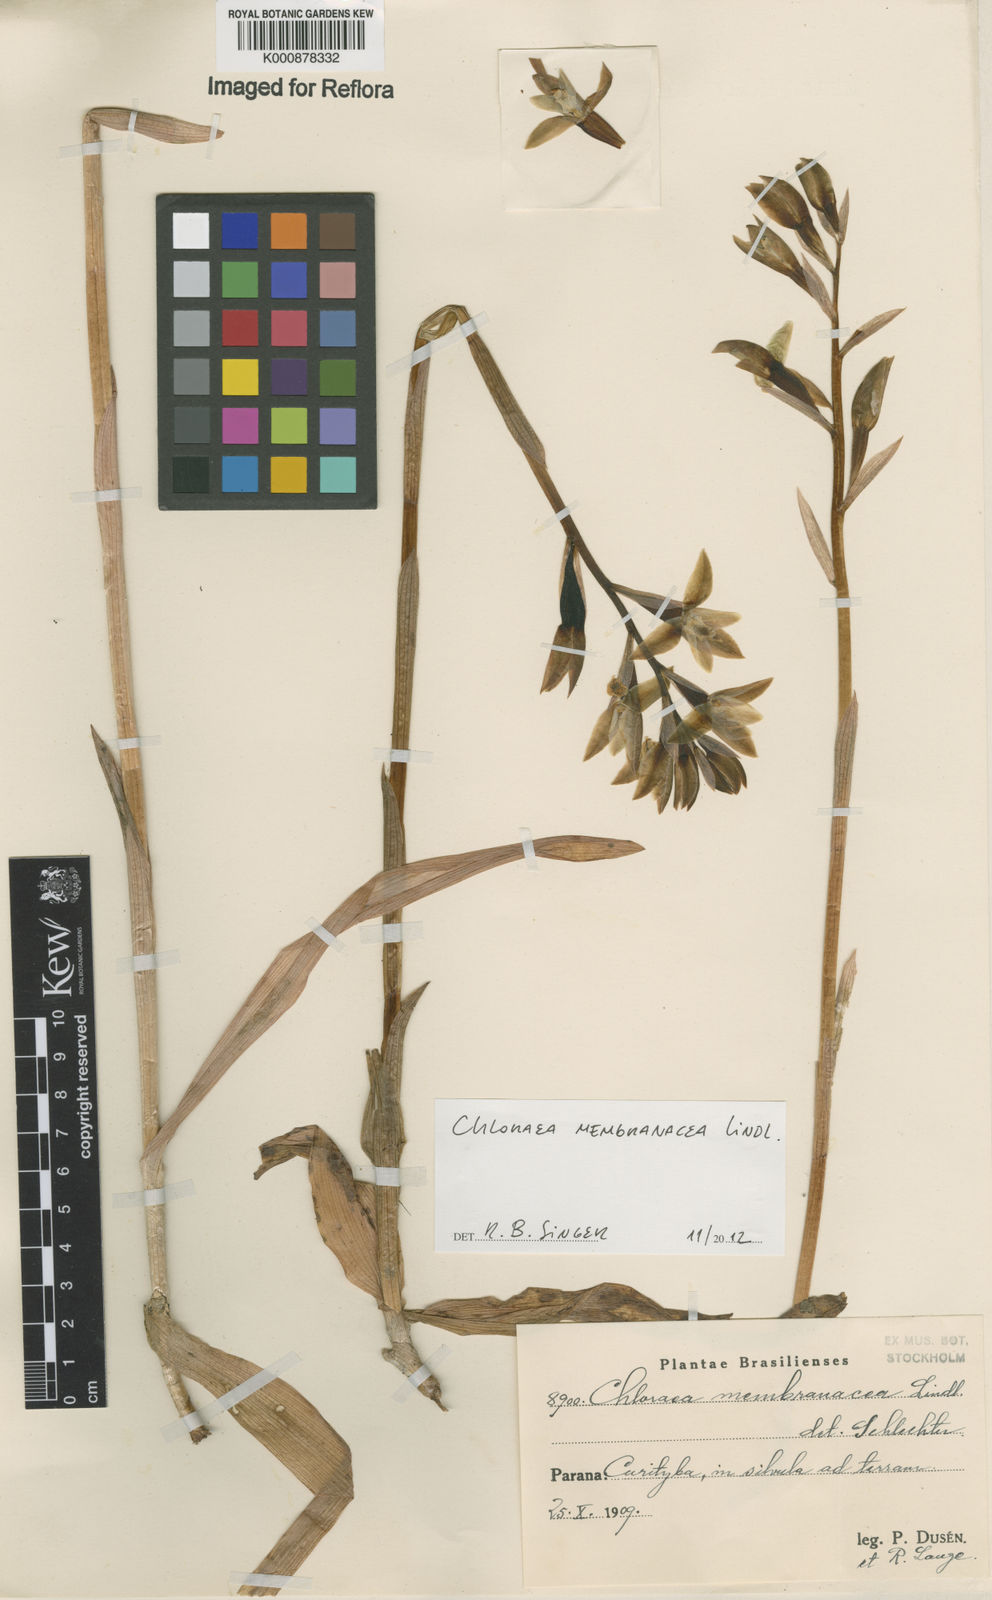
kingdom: Plantae
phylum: Tracheophyta
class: Liliopsida
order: Asparagales
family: Orchidaceae
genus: Chloraea
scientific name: Chloraea membranacea
